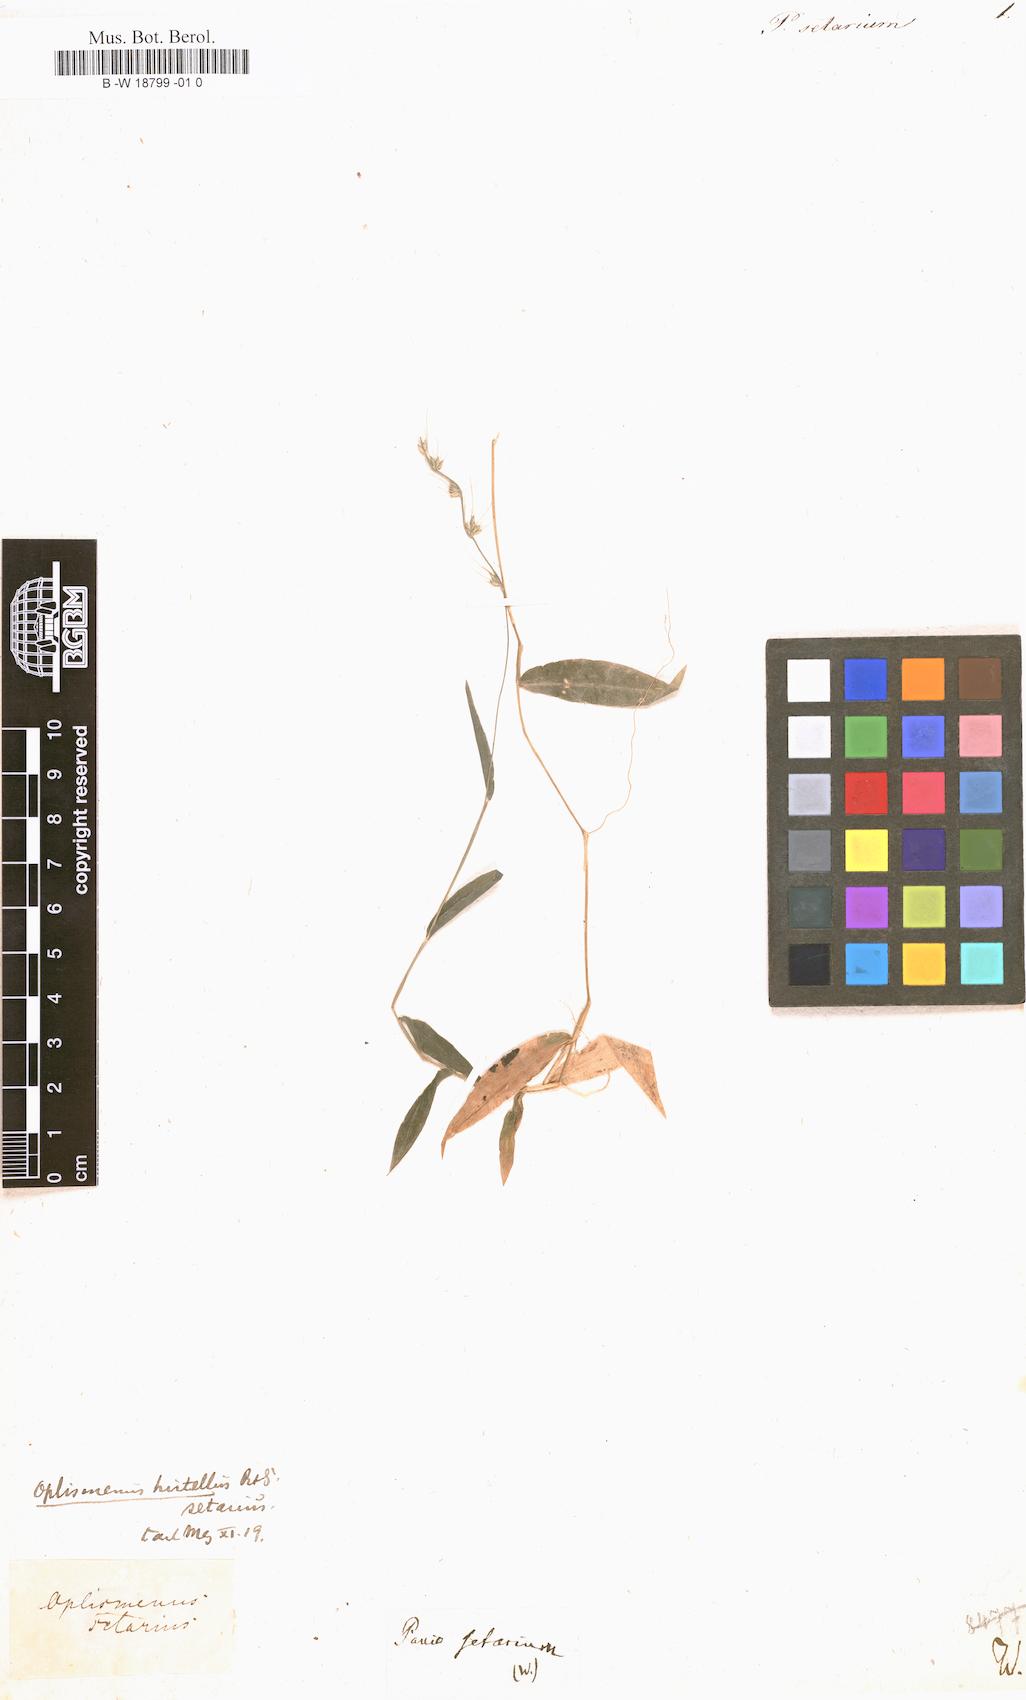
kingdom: Plantae
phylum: Tracheophyta
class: Liliopsida
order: Poales
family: Poaceae
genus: Oplismenus
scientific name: Oplismenus compositus
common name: Running mountain grass
